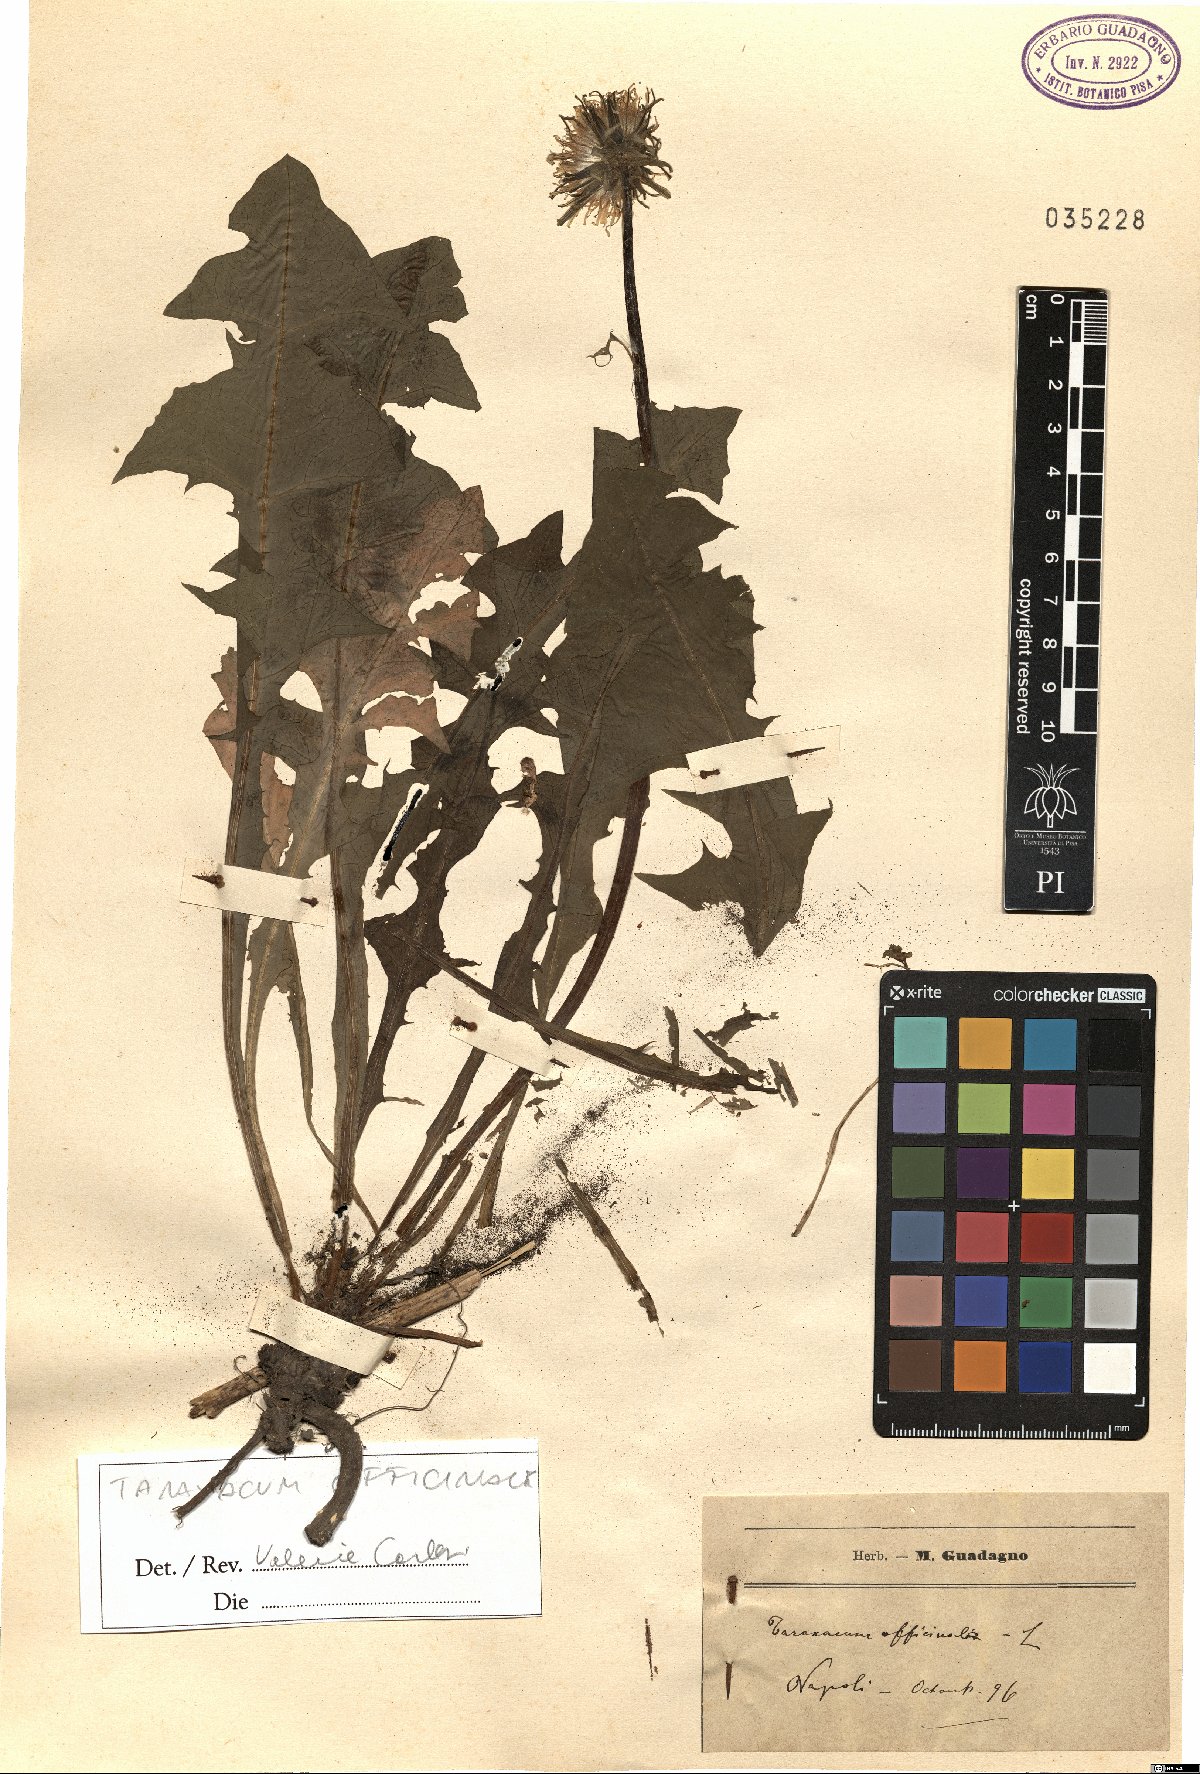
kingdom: Plantae
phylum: Tracheophyta
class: Magnoliopsida
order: Asterales
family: Asteraceae
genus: Taraxacum
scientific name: Taraxacum officinale
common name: Common dandelion
